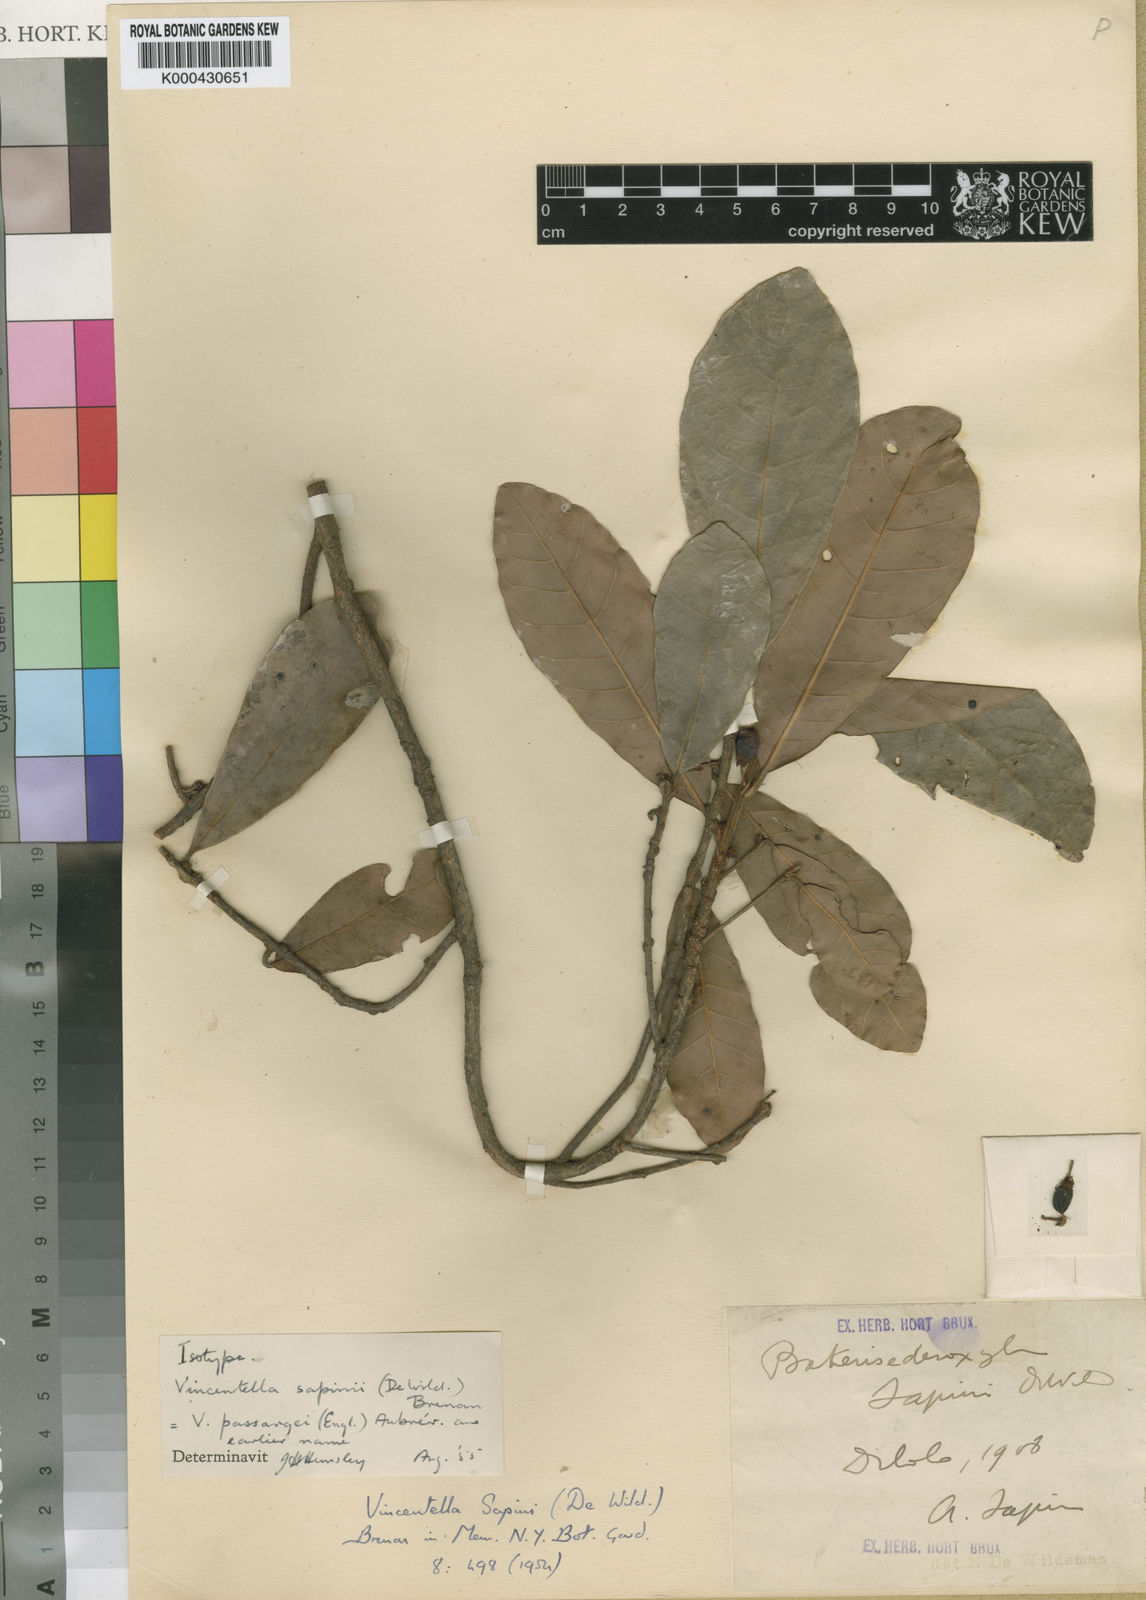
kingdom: Plantae
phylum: Tracheophyta
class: Magnoliopsida
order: Ericales
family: Sapotaceae
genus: Synsepalum
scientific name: Synsepalum passargei
